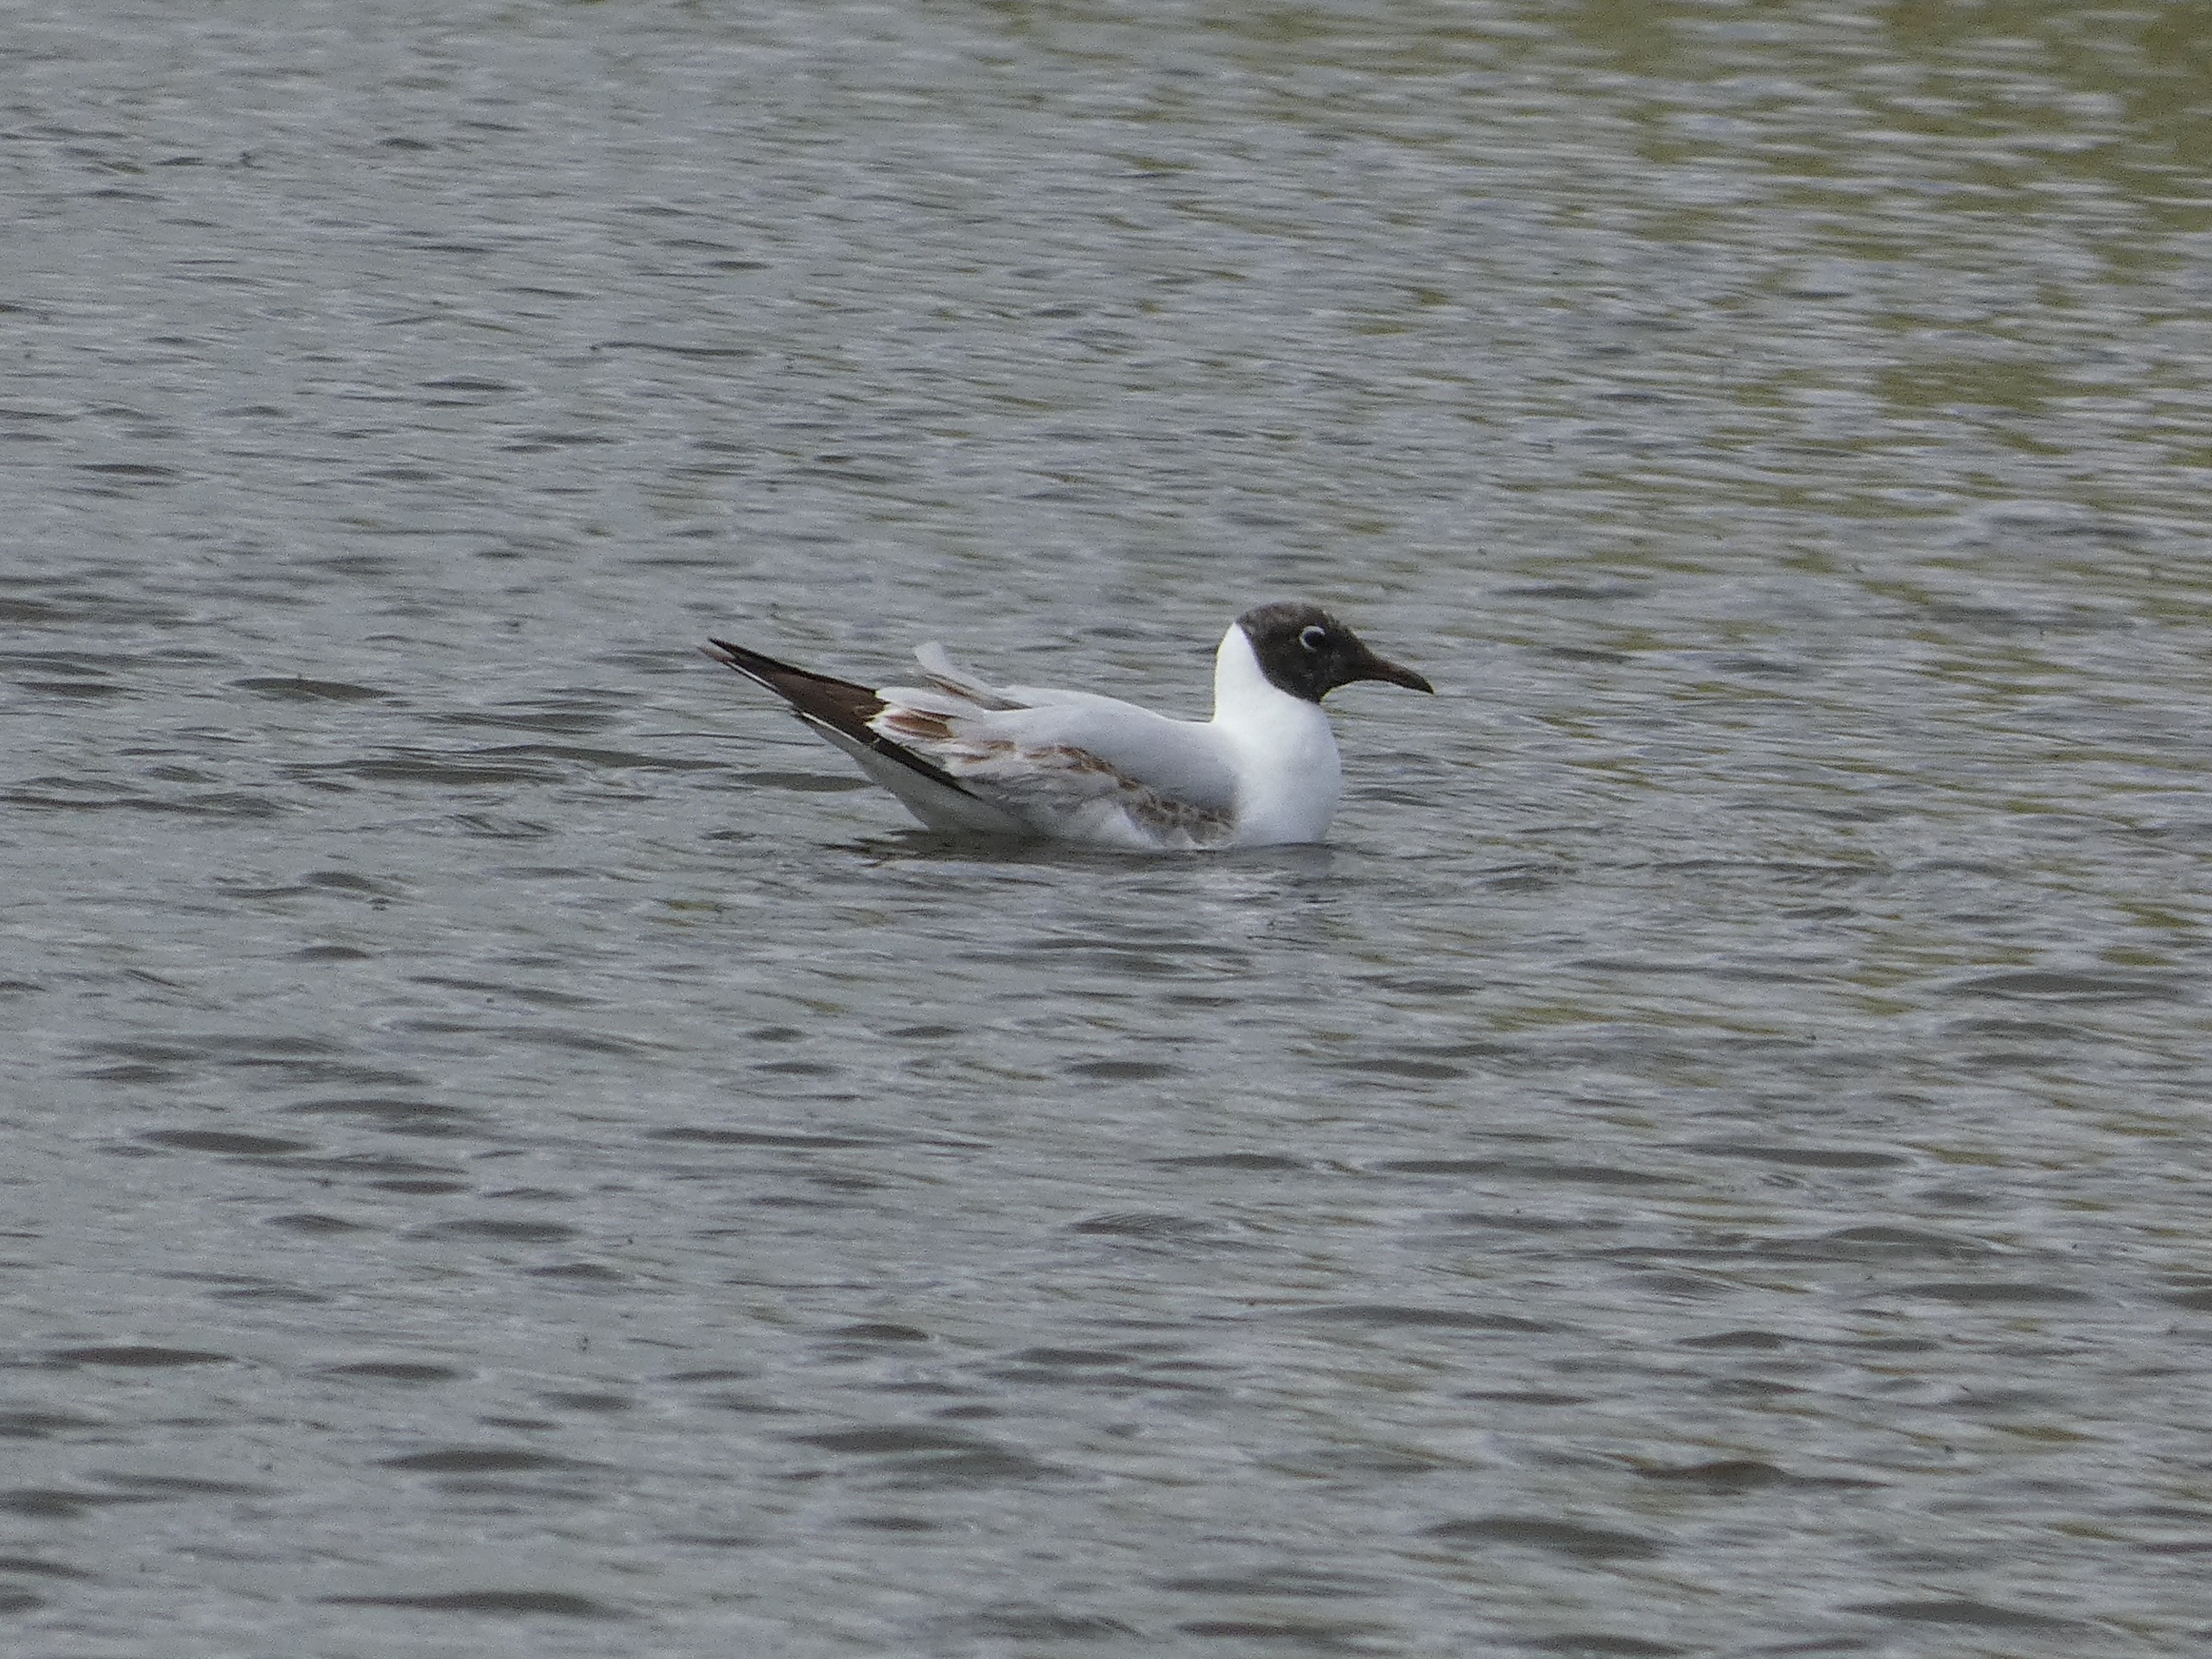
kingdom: Animalia
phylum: Chordata
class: Aves
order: Charadriiformes
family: Laridae
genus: Chroicocephalus
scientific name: Chroicocephalus ridibundus
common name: Hættemåge
